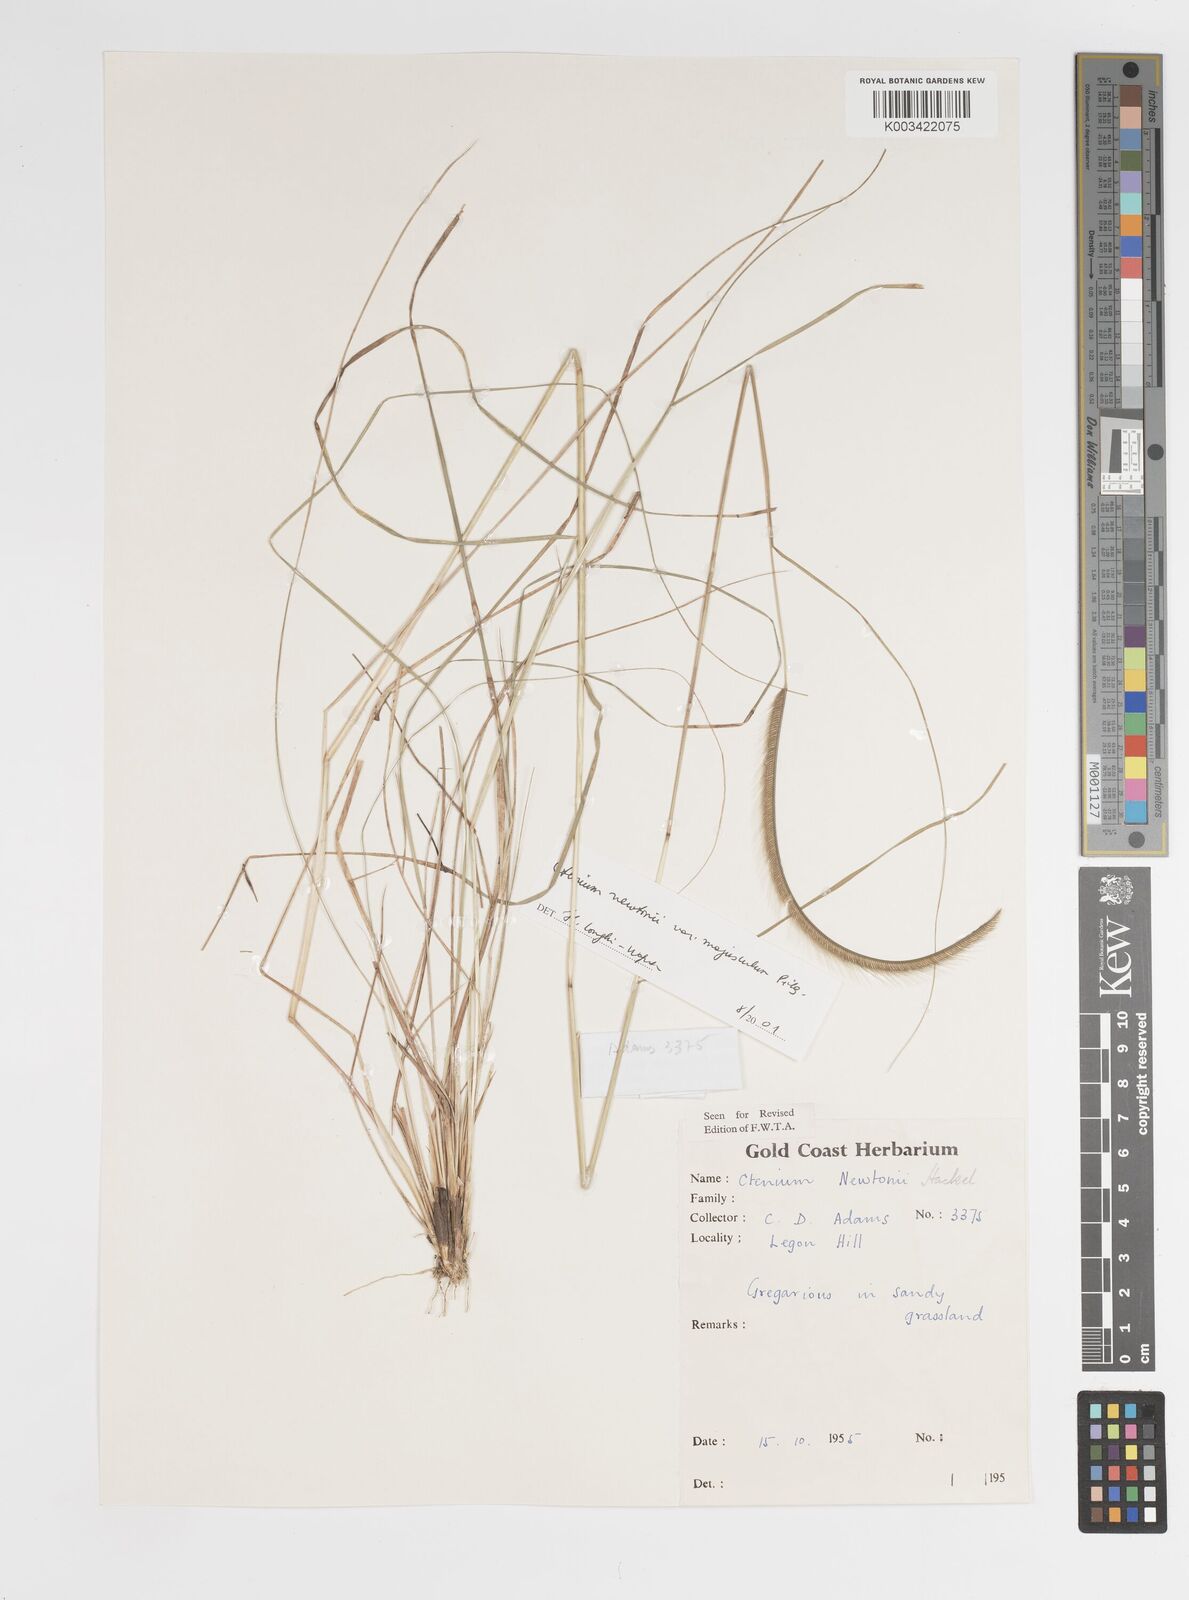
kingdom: Plantae
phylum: Tracheophyta
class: Liliopsida
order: Poales
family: Poaceae
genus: Ctenium
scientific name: Ctenium newtonii
